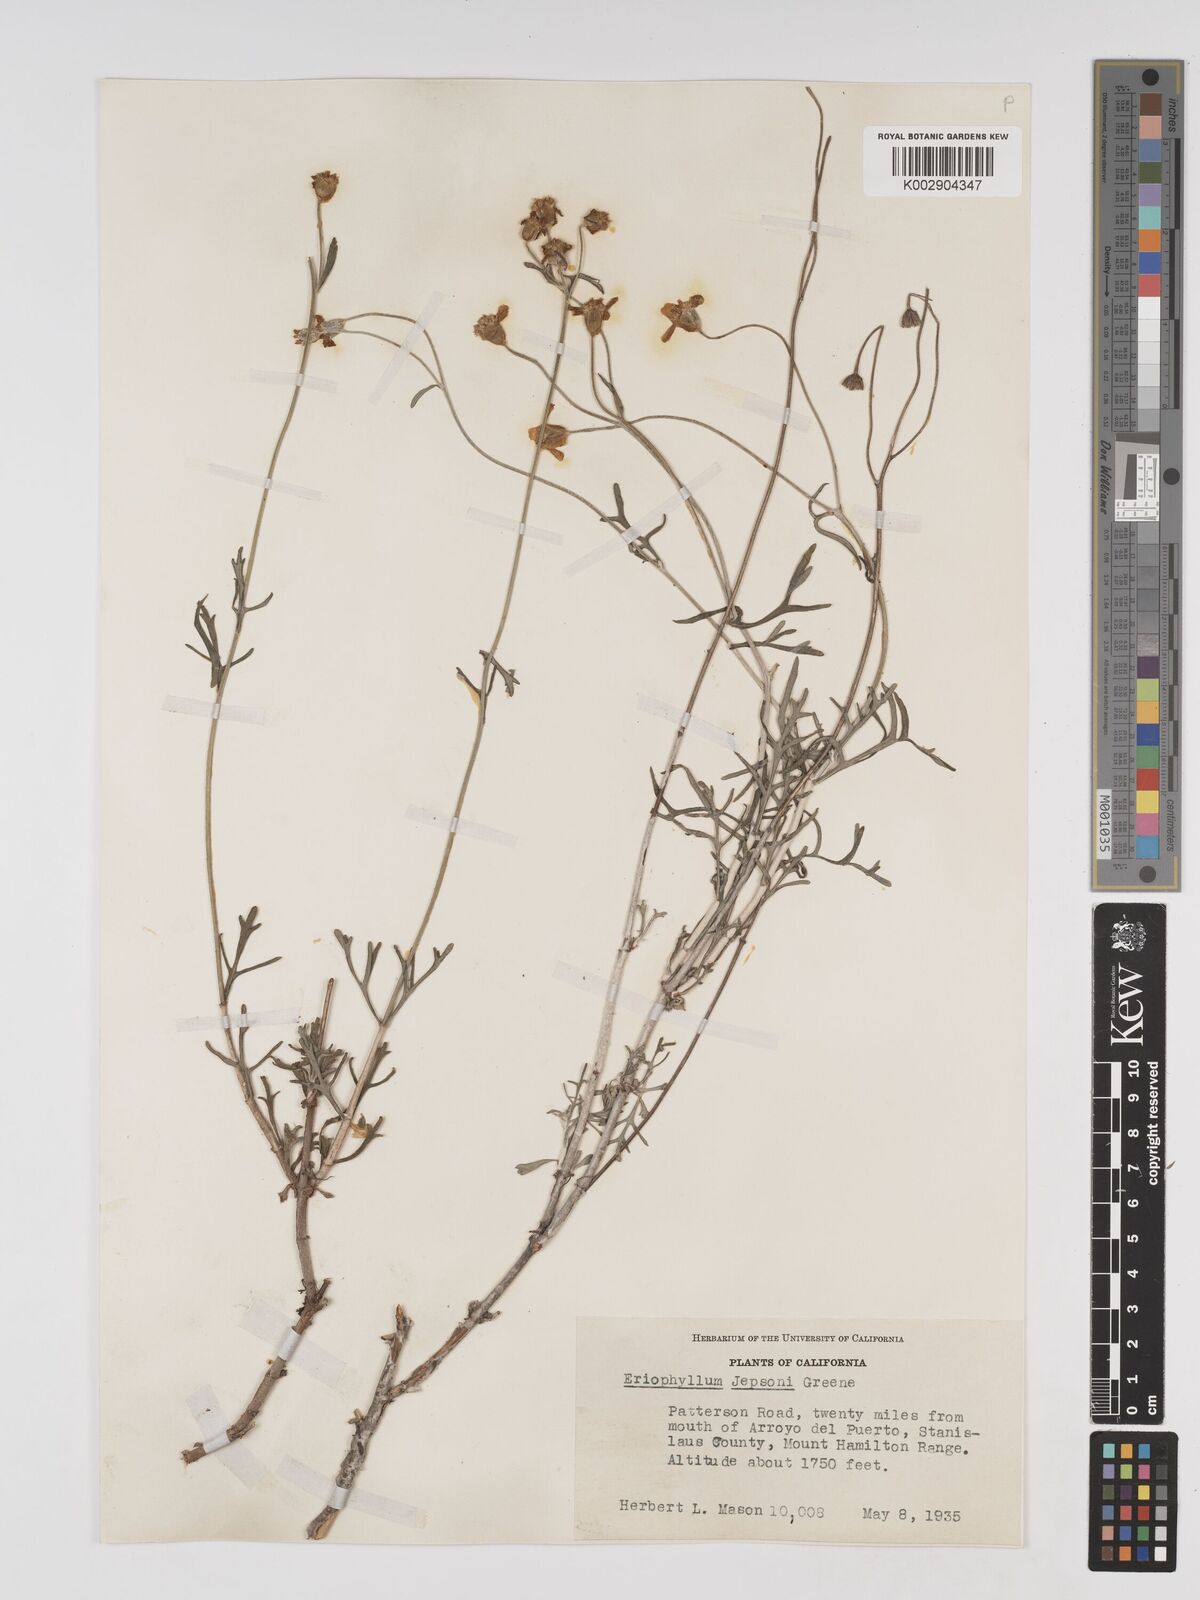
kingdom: Plantae
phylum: Tracheophyta
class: Magnoliopsida
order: Asterales
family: Asteraceae
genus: Eriophyllum
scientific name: Eriophyllum jepsonii
